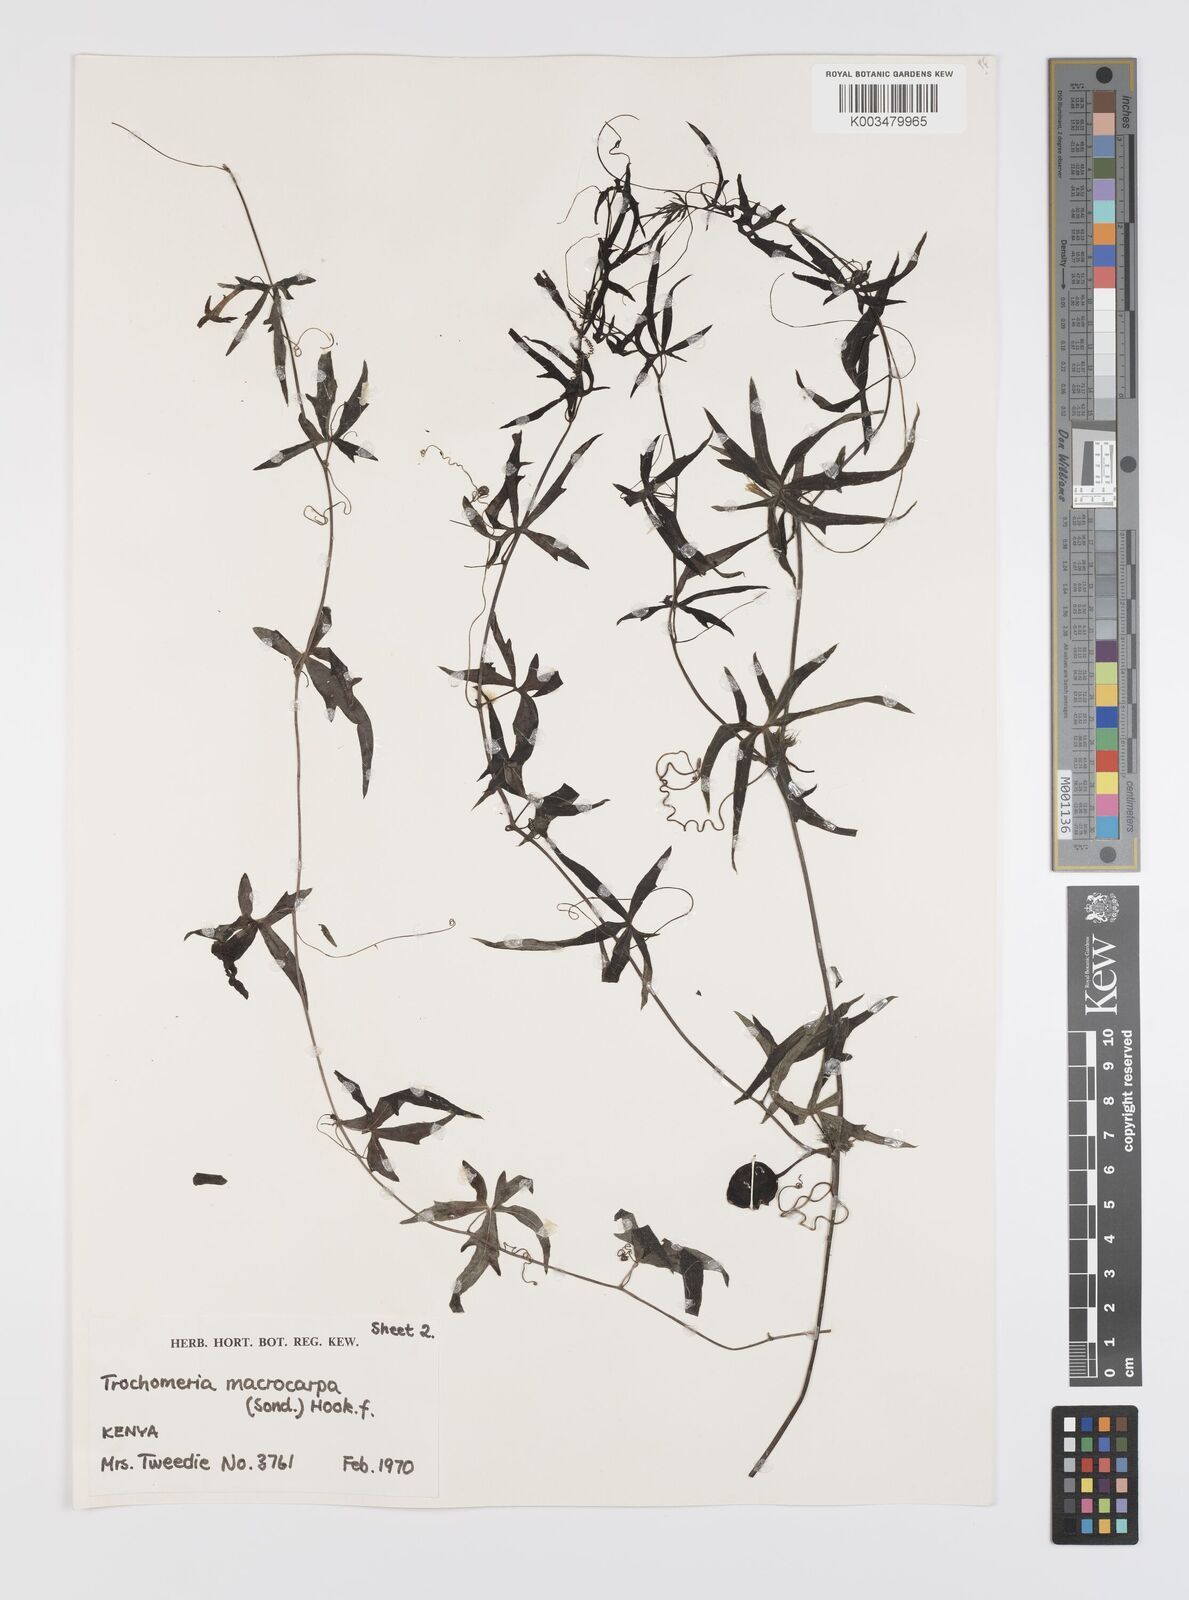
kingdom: Plantae
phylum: Tracheophyta
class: Magnoliopsida
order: Cucurbitales
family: Cucurbitaceae
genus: Trochomeria
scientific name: Trochomeria macrocarpa
